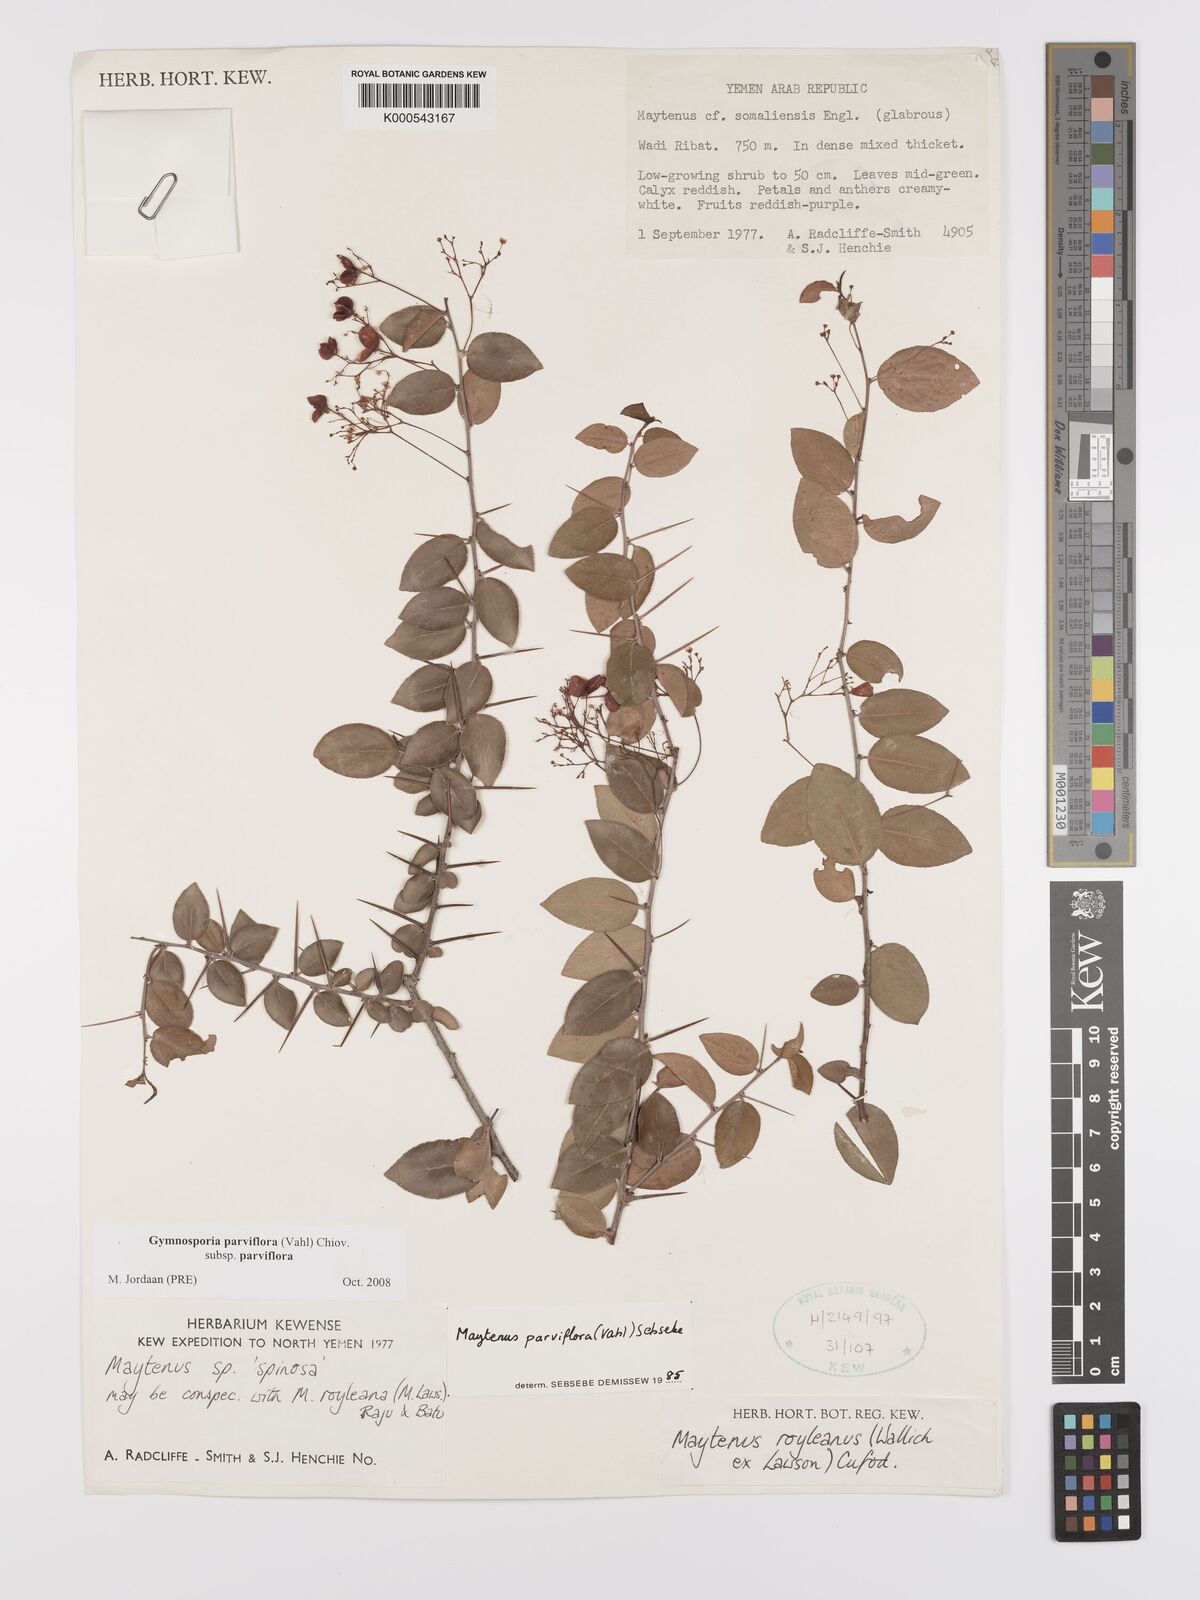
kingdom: Plantae
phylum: Tracheophyta
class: Magnoliopsida
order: Celastrales
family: Celastraceae
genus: Gymnosporia
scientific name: Gymnosporia parviflora
